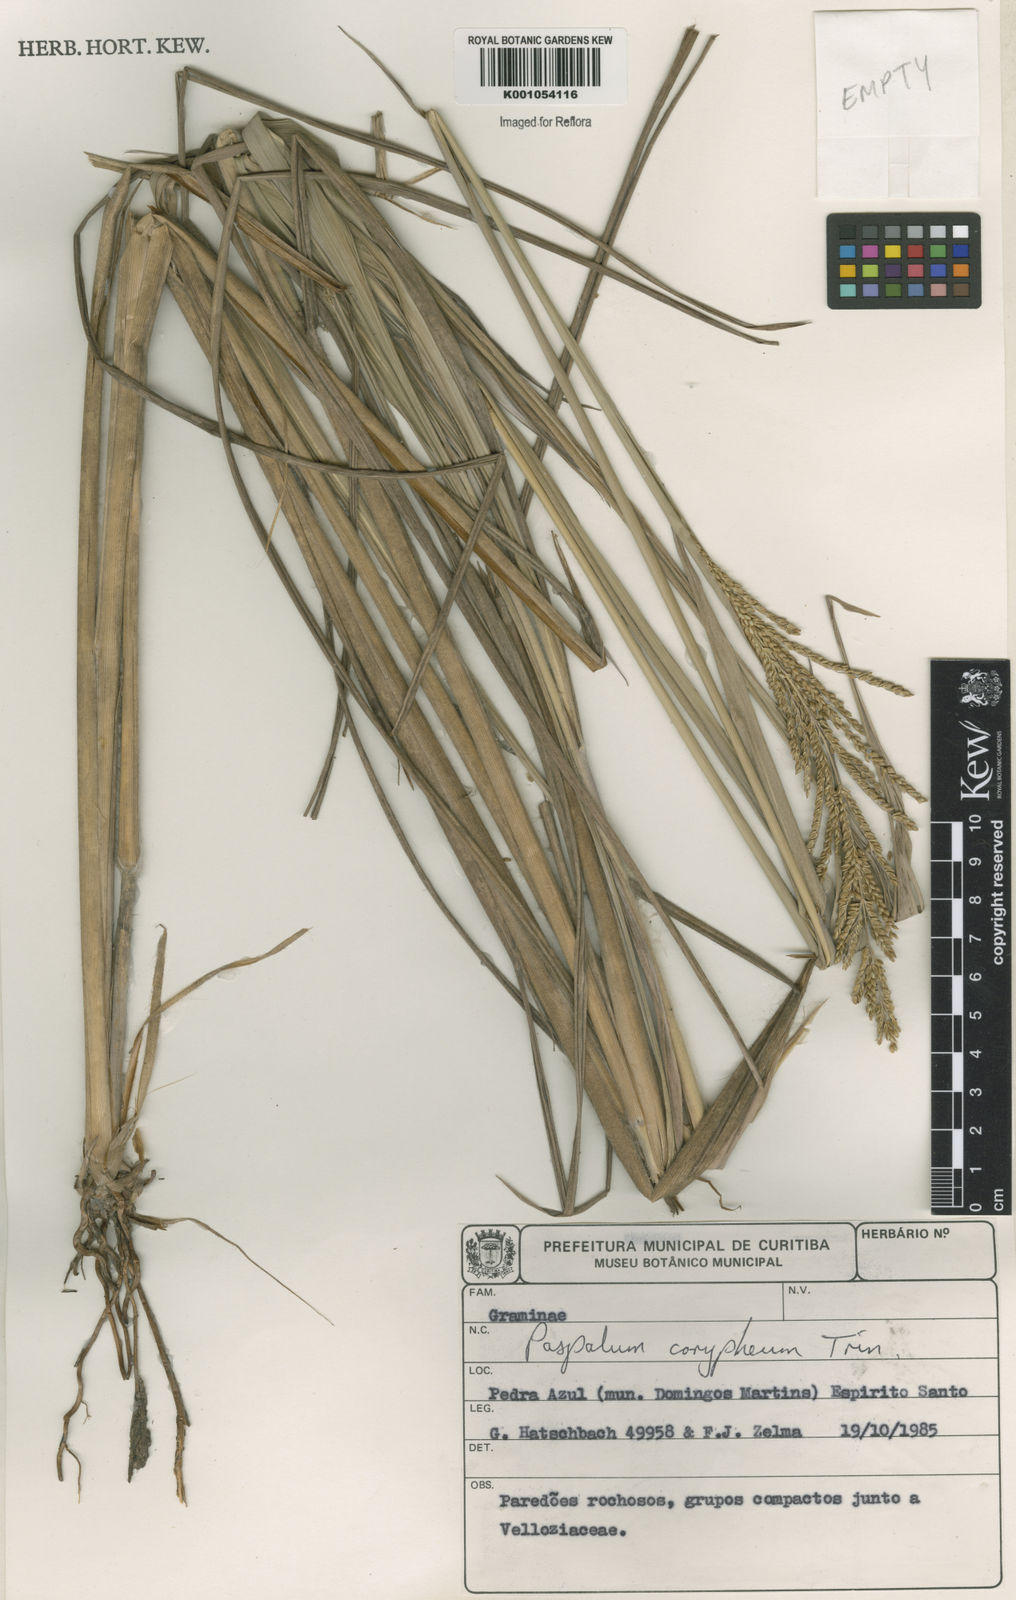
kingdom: Plantae
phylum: Tracheophyta
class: Liliopsida
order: Poales
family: Poaceae
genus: Paspalum
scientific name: Paspalum coryphaeum
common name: Emperor crowngrass
